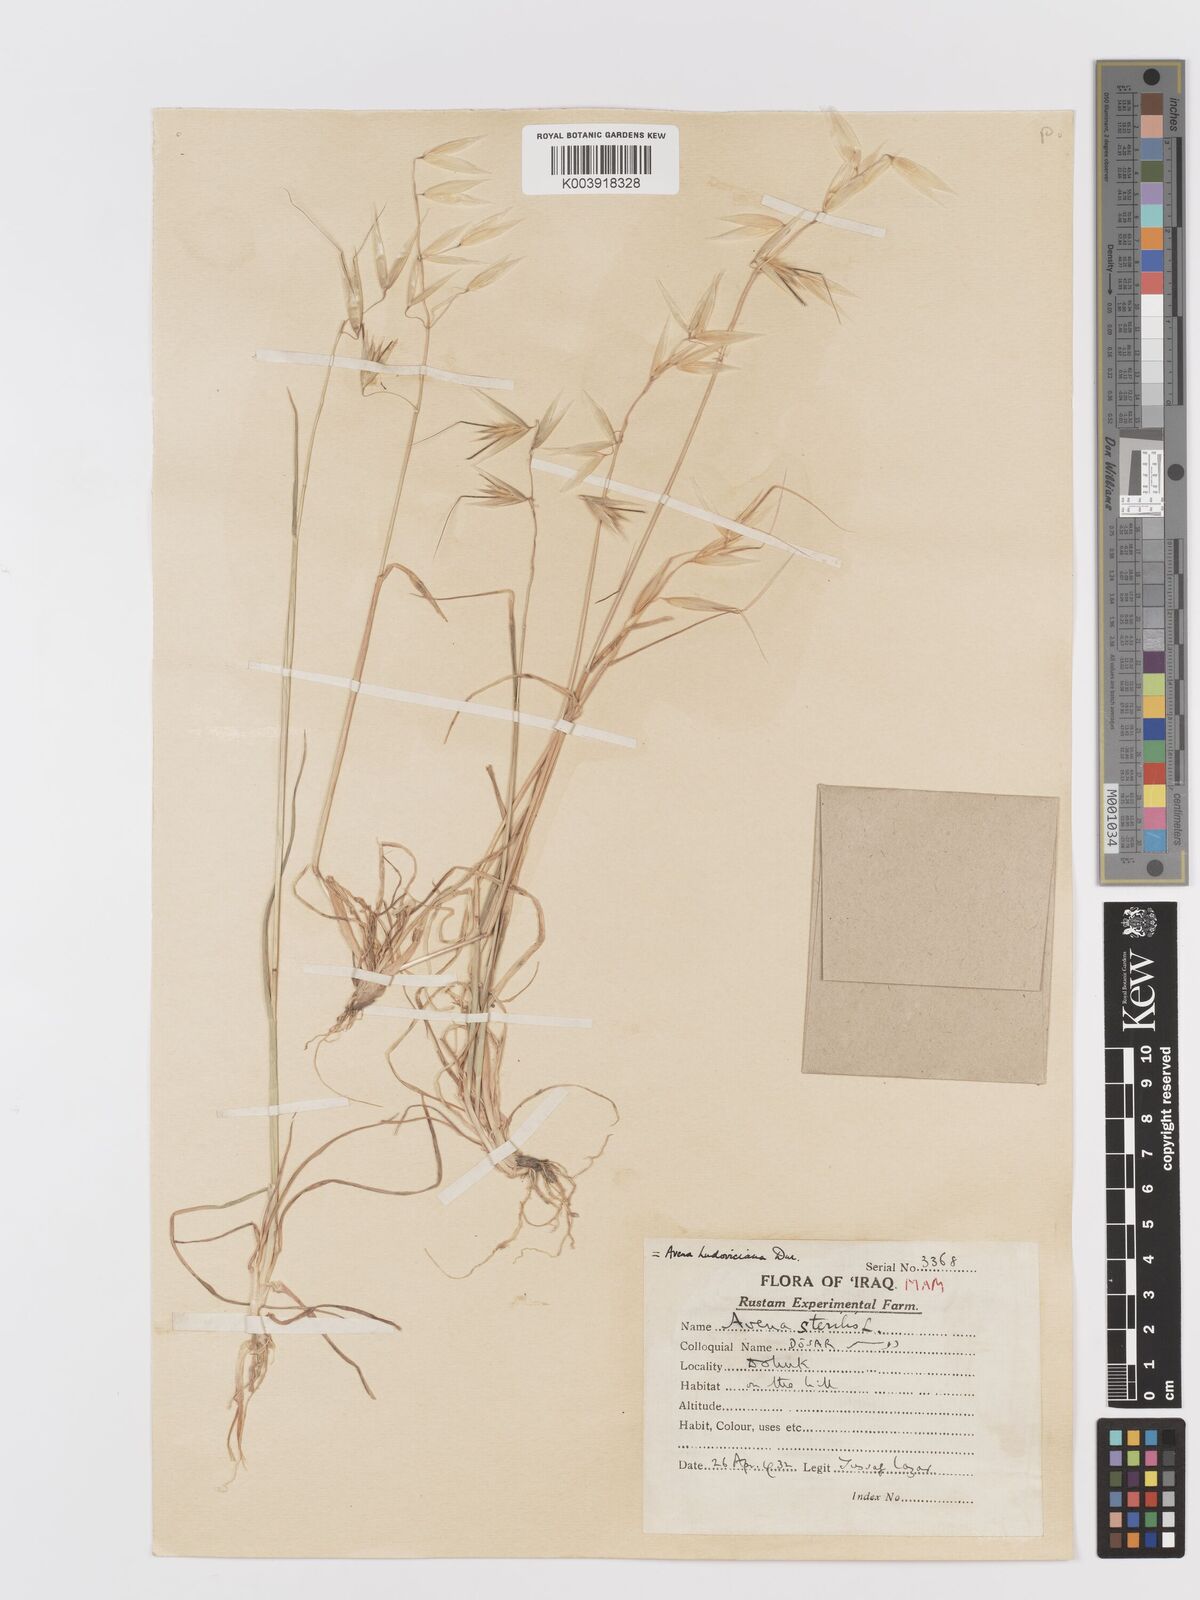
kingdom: Plantae
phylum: Tracheophyta
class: Liliopsida
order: Poales
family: Poaceae
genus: Avena
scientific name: Avena sterilis
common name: Animated oat
